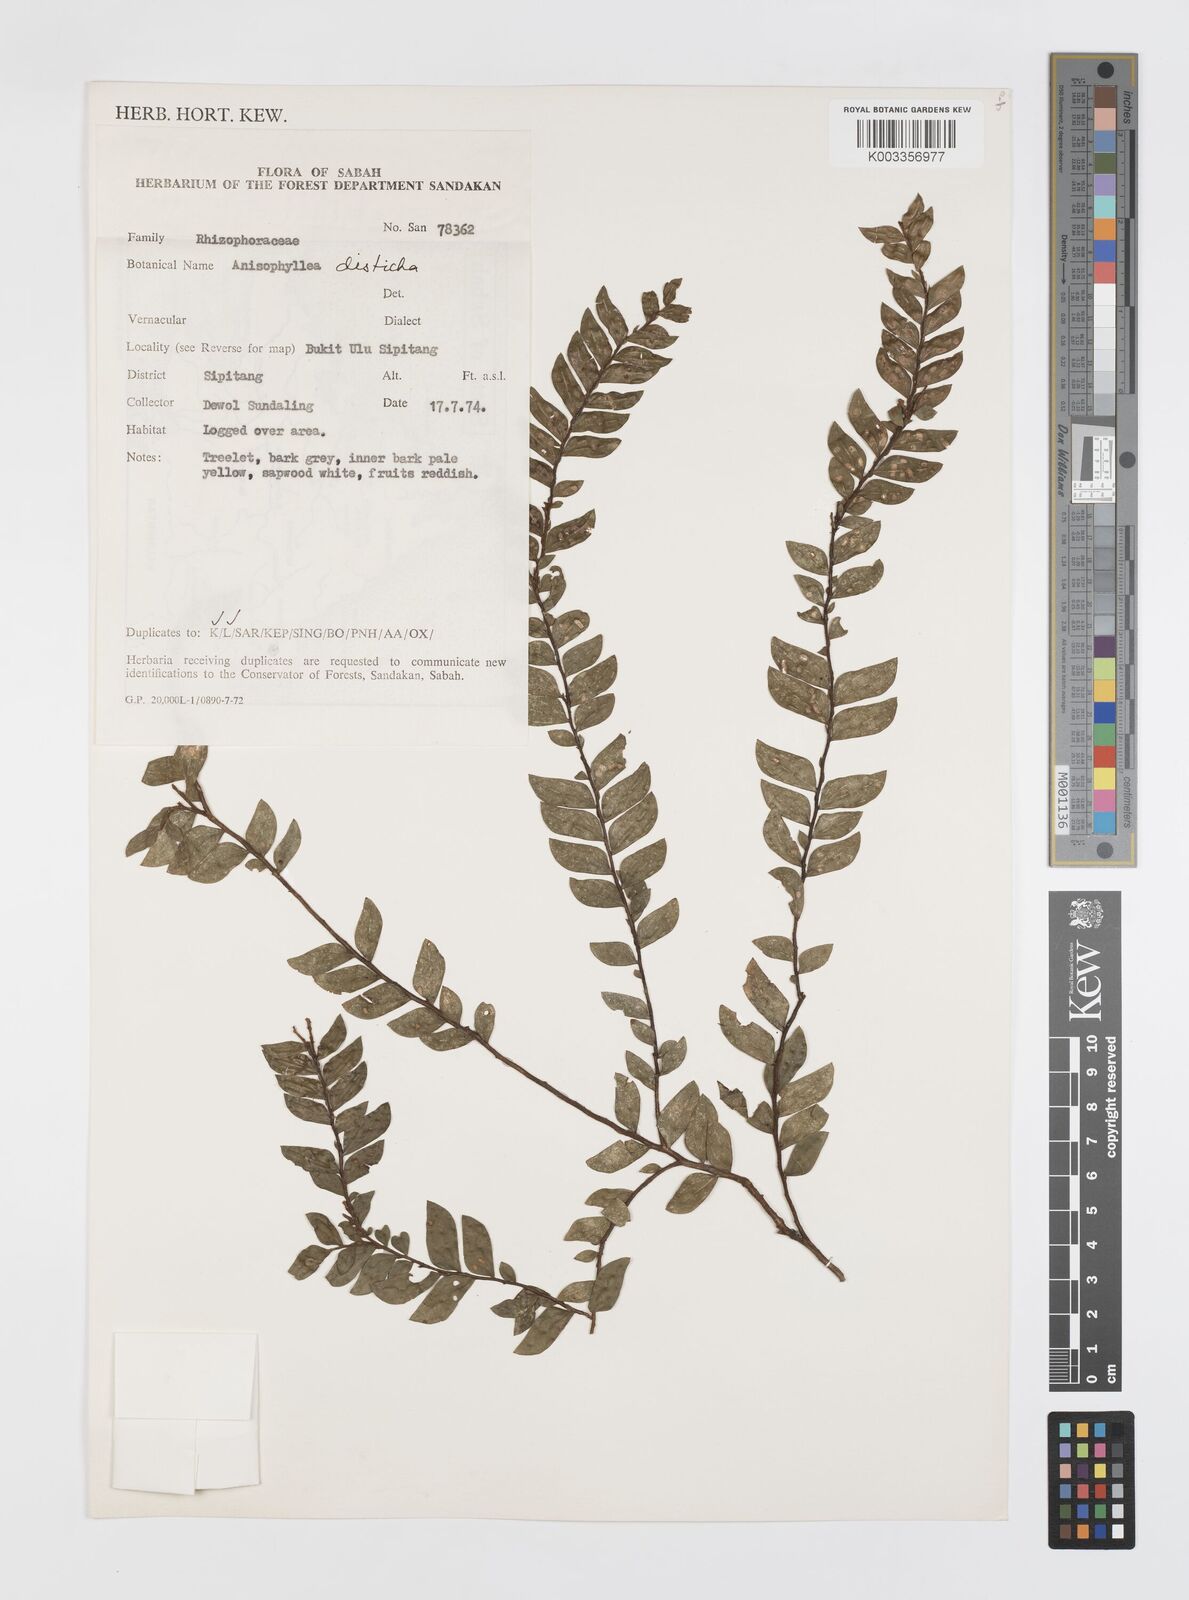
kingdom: Plantae
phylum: Tracheophyta
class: Magnoliopsida
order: Cucurbitales
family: Anisophylleaceae
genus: Anisophyllea
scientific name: Anisophyllea disticha
